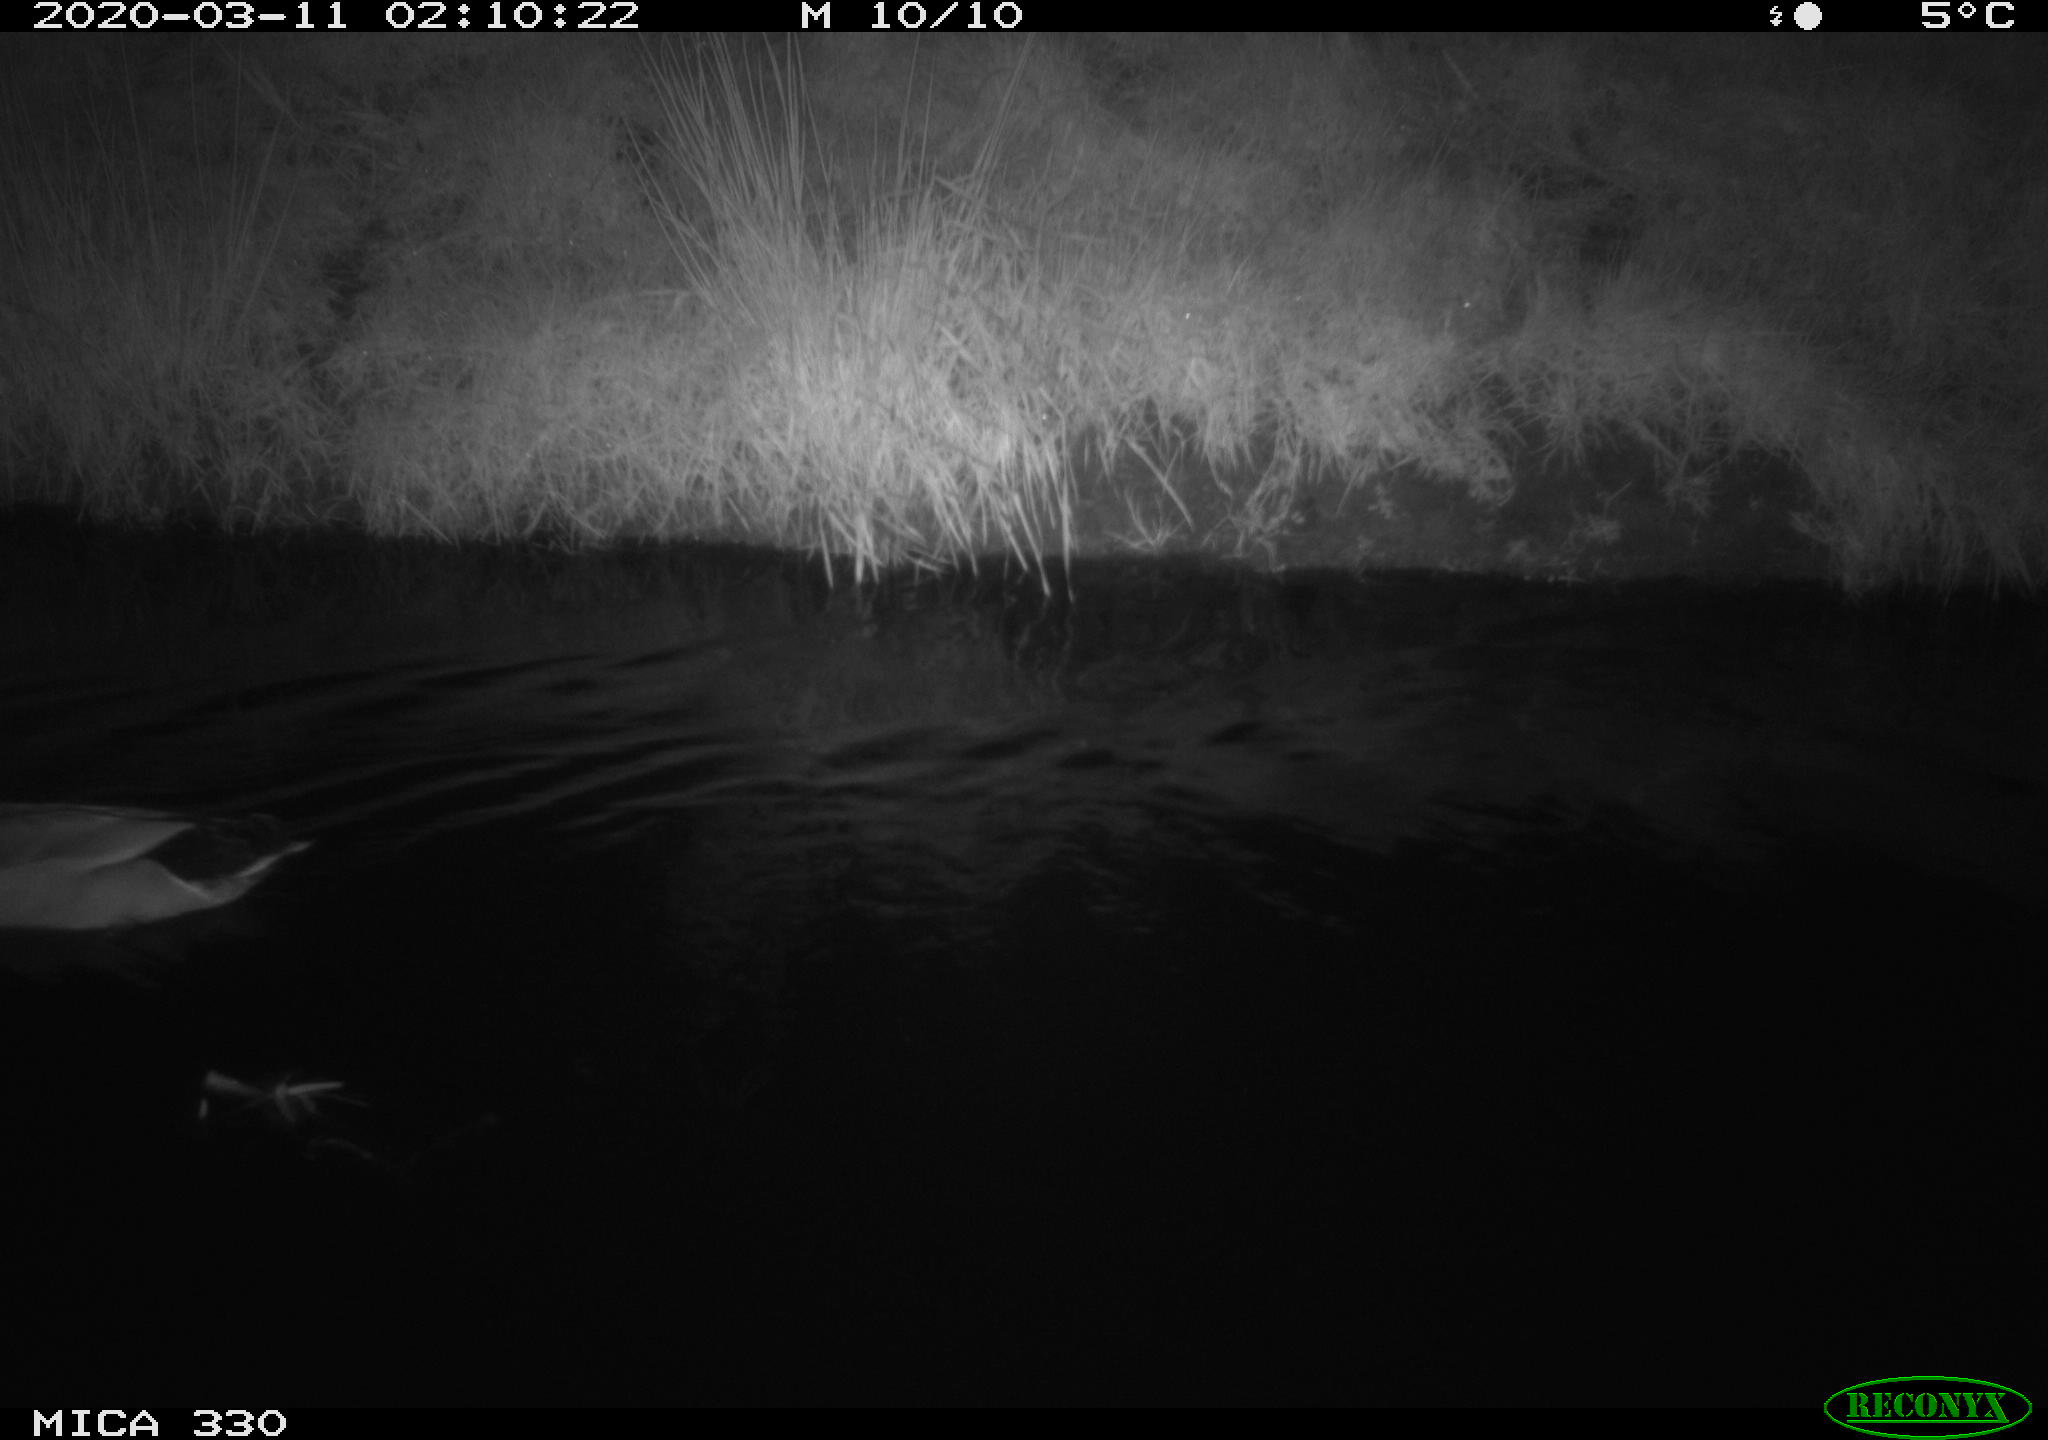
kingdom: Animalia
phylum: Chordata
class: Aves
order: Anseriformes
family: Anatidae
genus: Anas
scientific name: Anas platyrhynchos
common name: Mallard
